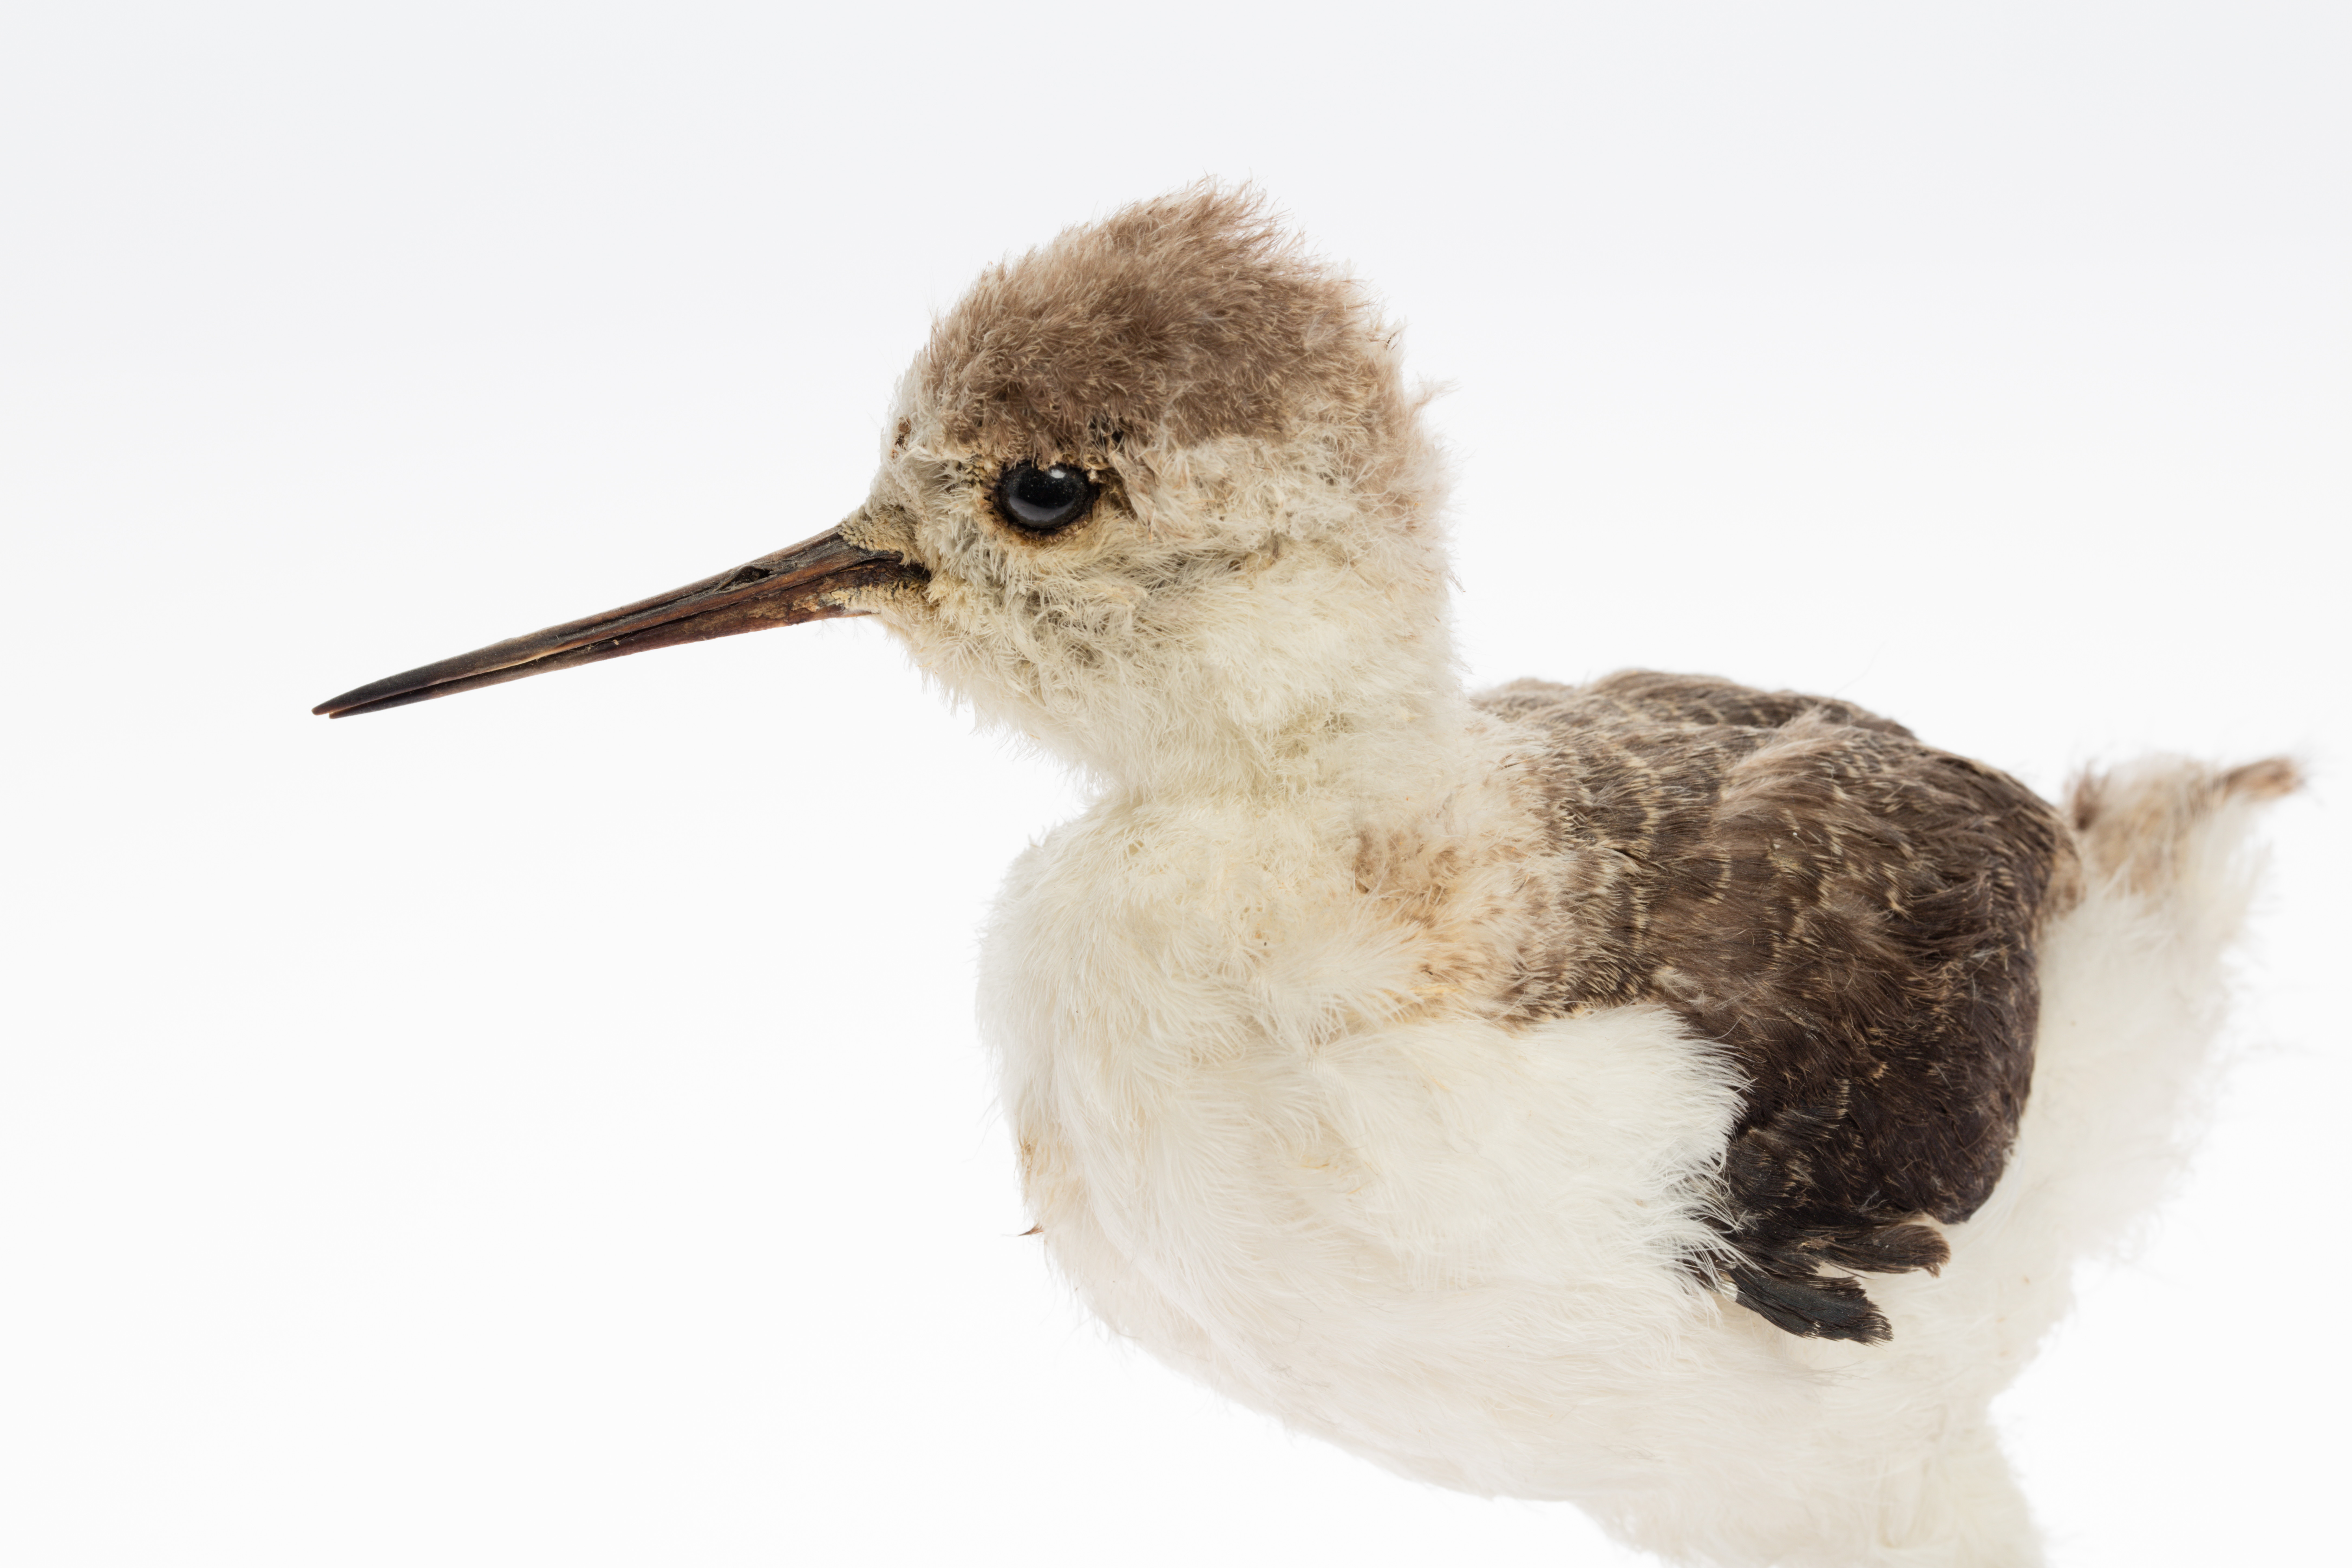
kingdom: Animalia
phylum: Chordata
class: Aves
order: Charadriiformes
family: Recurvirostridae
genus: Himantopus
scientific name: Himantopus himantopus
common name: Black-winged stilt
